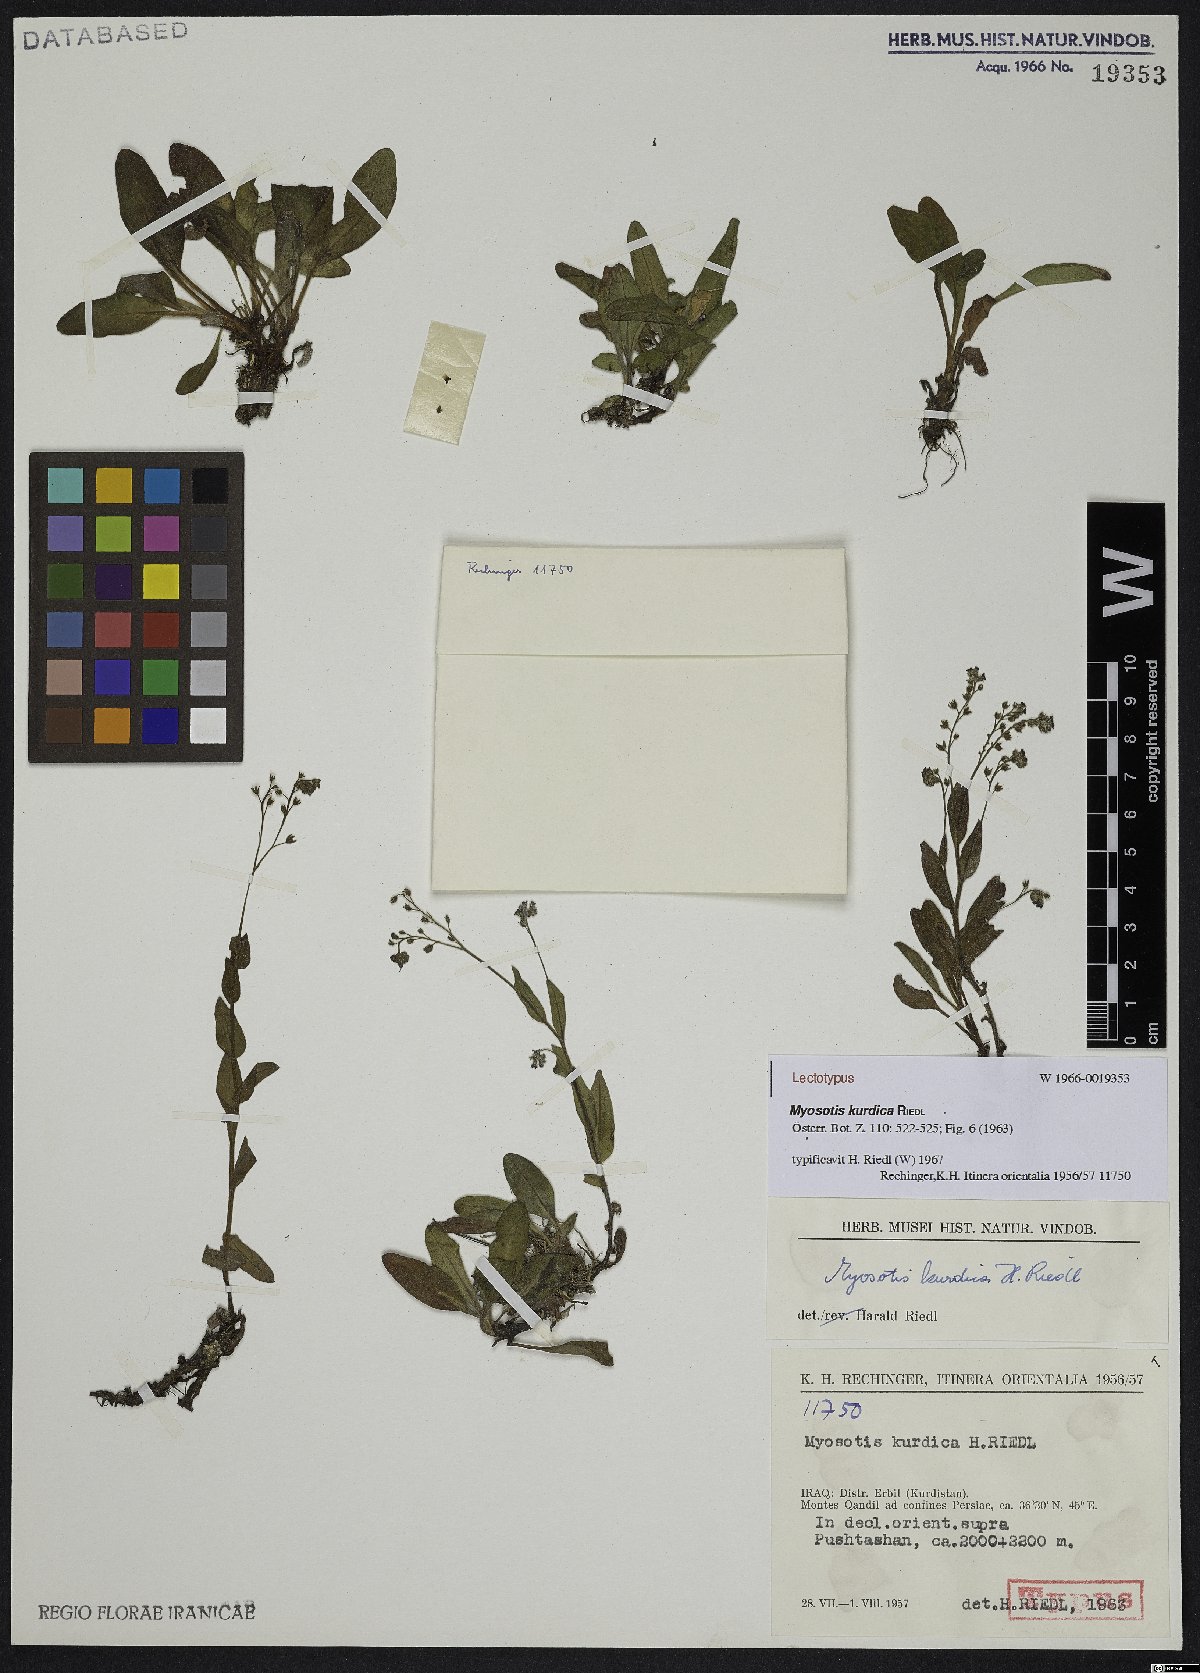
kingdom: Plantae
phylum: Tracheophyta
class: Magnoliopsida
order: Boraginales
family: Boraginaceae
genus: Myosotis
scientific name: Myosotis kurdica
